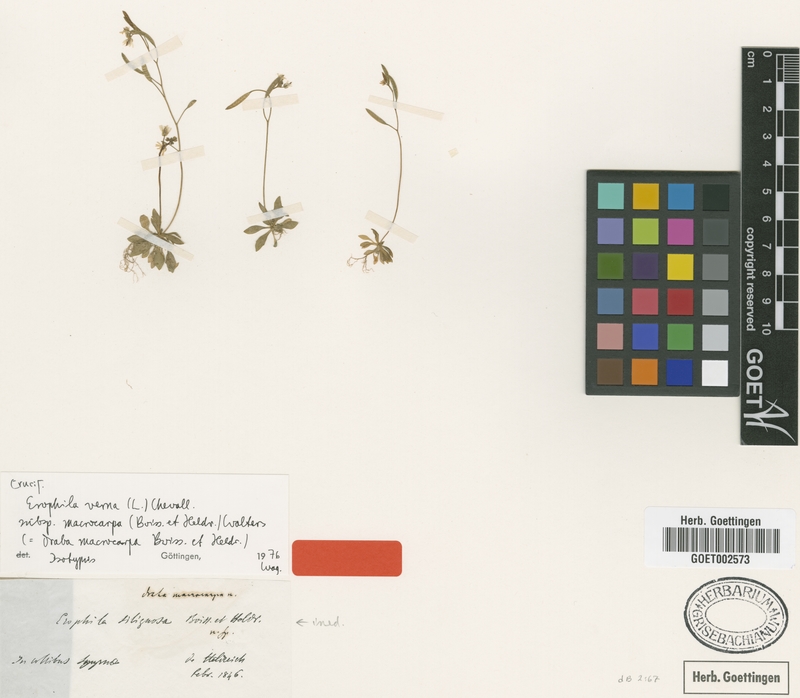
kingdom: Plantae
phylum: Tracheophyta
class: Magnoliopsida
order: Brassicales
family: Brassicaceae
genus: Draba
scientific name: Draba verna
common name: Spring draba
